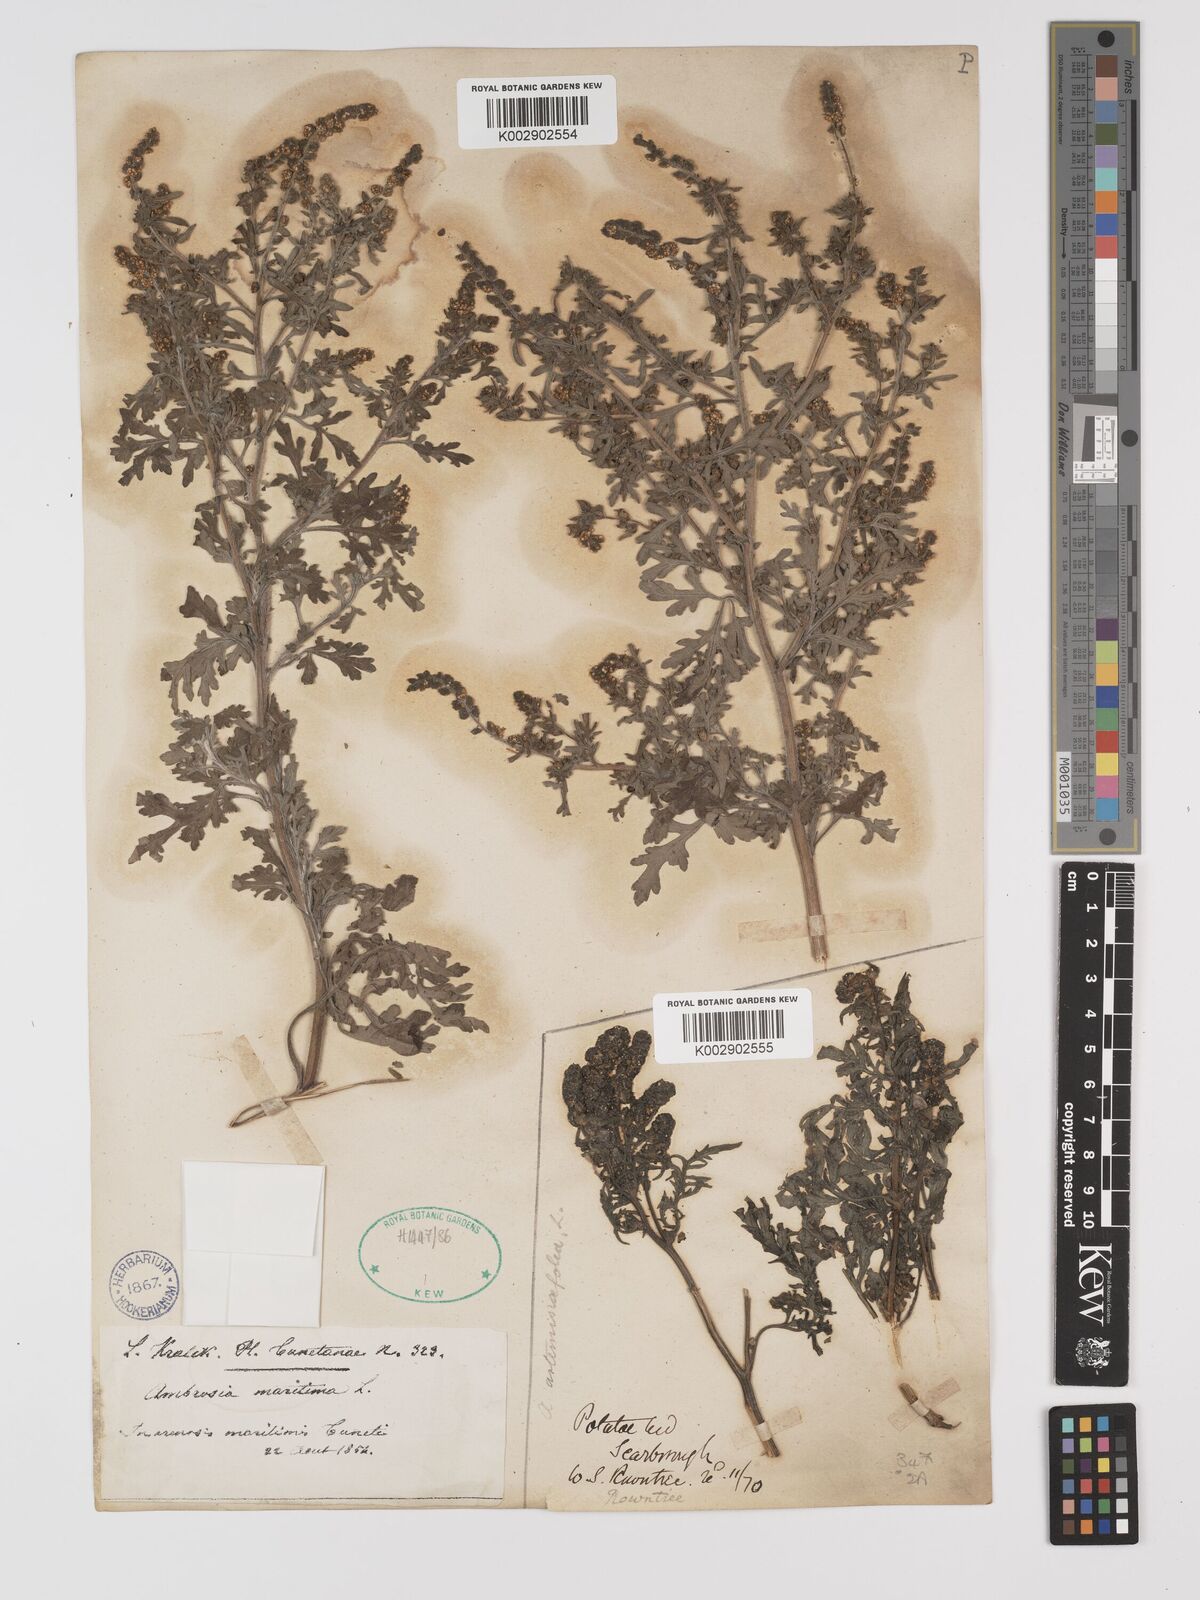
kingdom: Plantae
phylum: Tracheophyta
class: Magnoliopsida
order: Asterales
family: Asteraceae
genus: Ambrosia
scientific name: Ambrosia maritima
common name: Sea ambrosia
